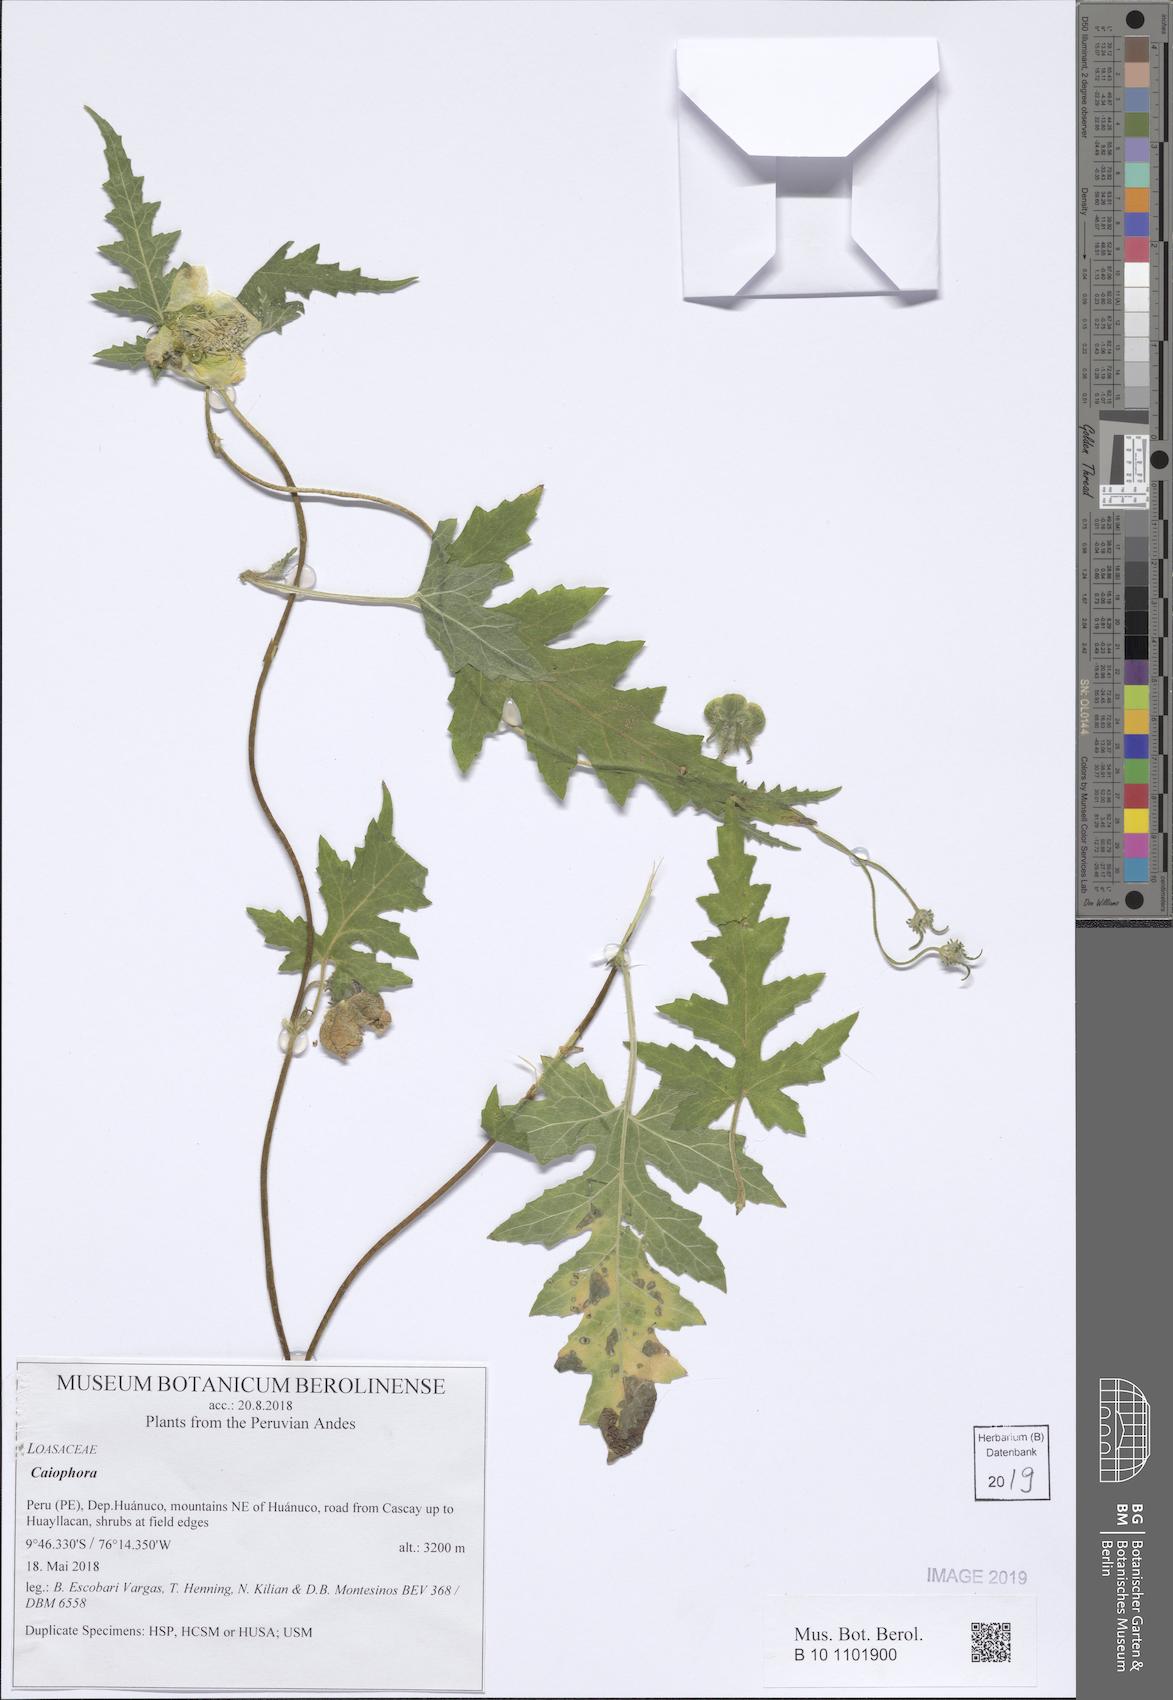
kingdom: Plantae
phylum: Tracheophyta
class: Magnoliopsida
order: Cornales
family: Loasaceae
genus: Caiophora
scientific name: Caiophora cirsiifolia
